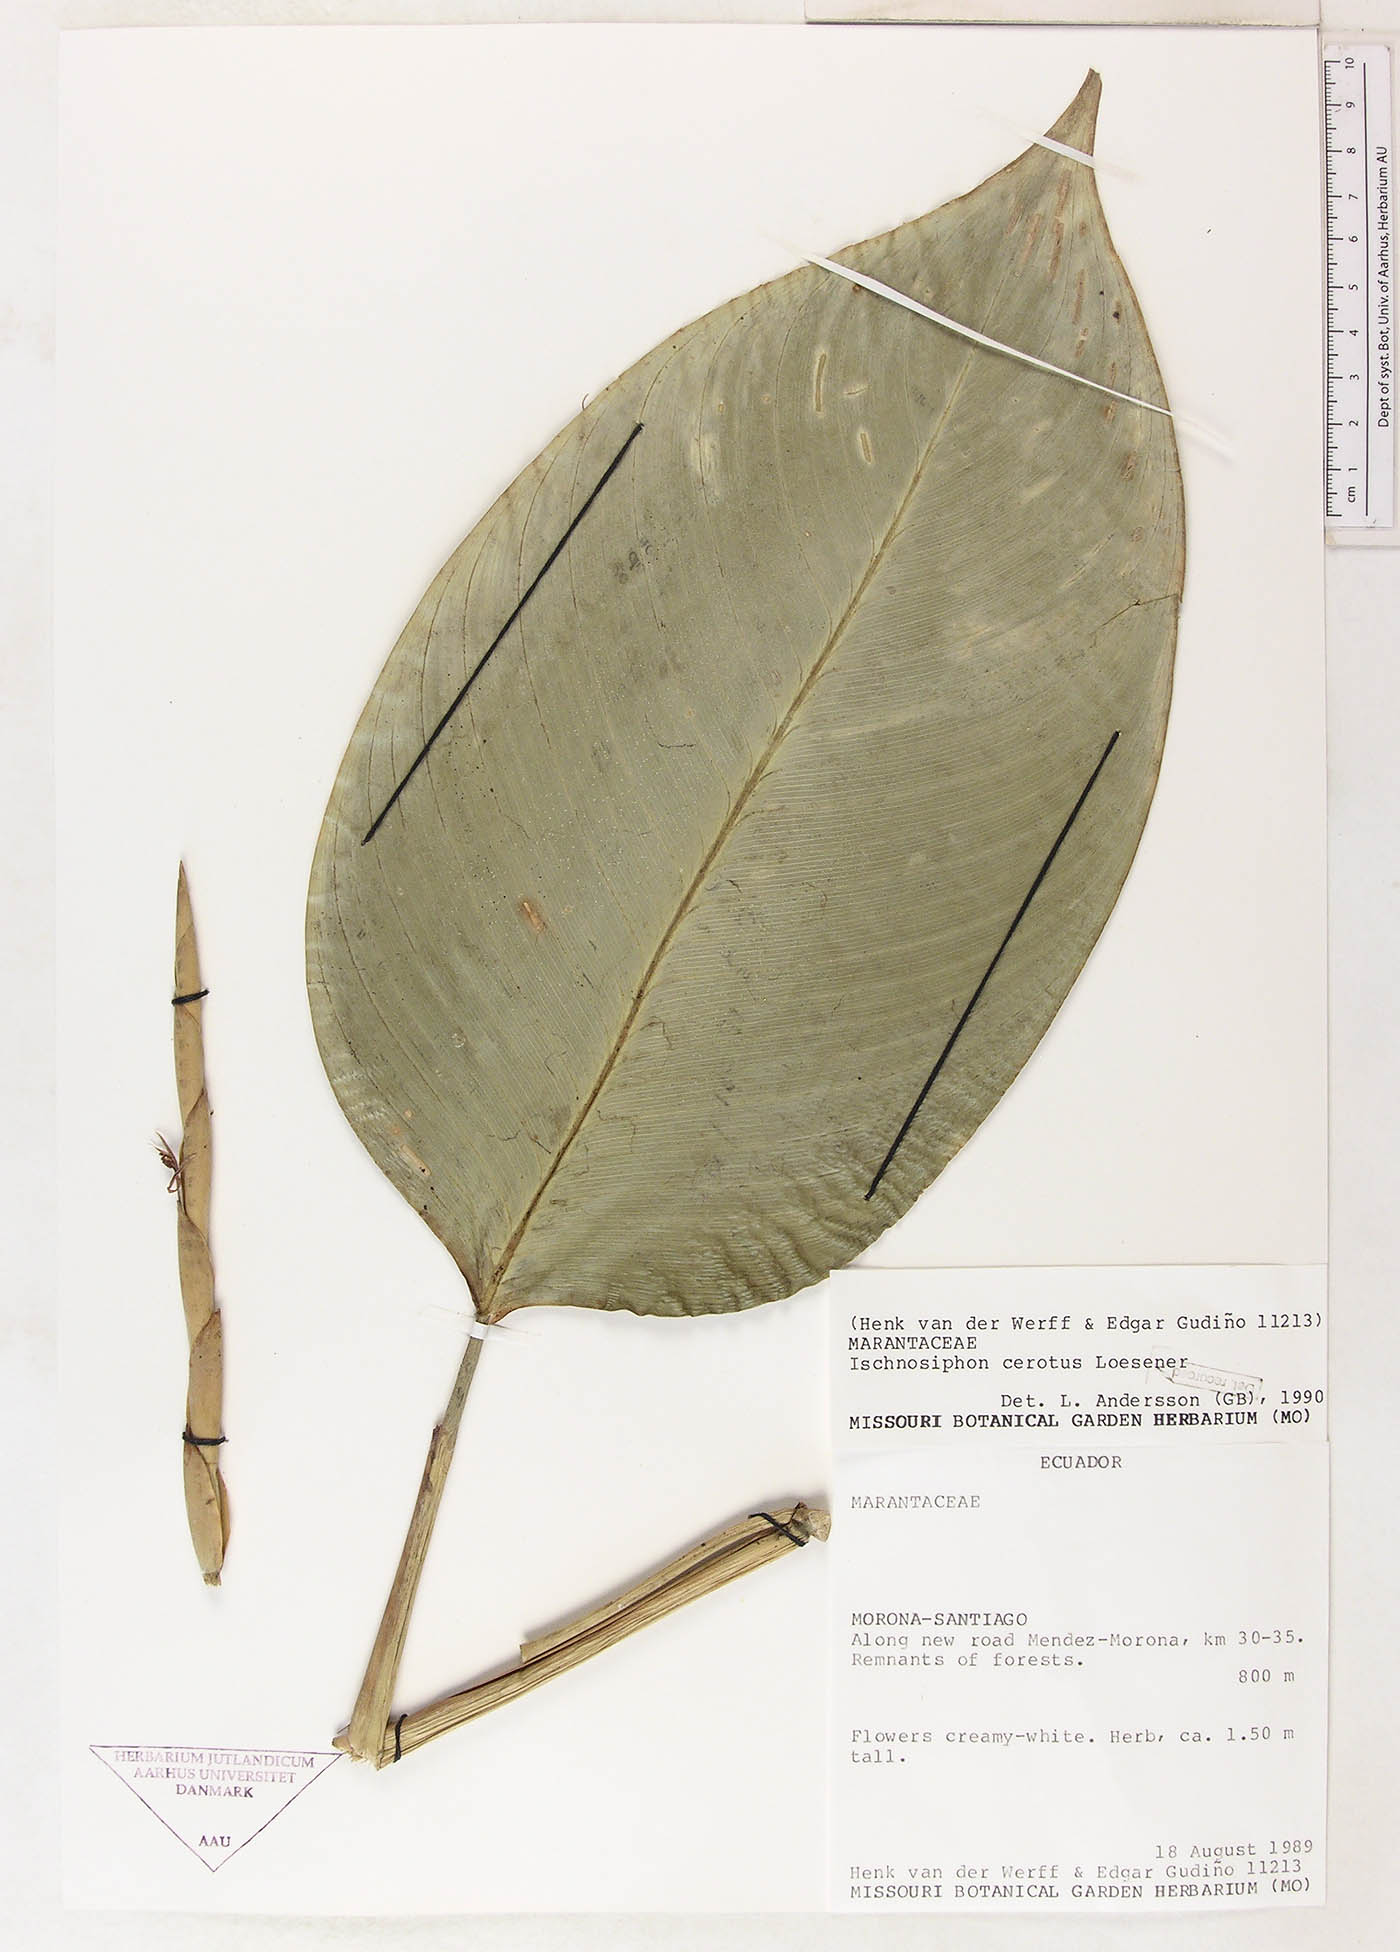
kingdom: Plantae
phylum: Tracheophyta
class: Liliopsida
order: Zingiberales
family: Marantaceae
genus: Ischnosiphon
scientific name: Ischnosiphon cerotus
